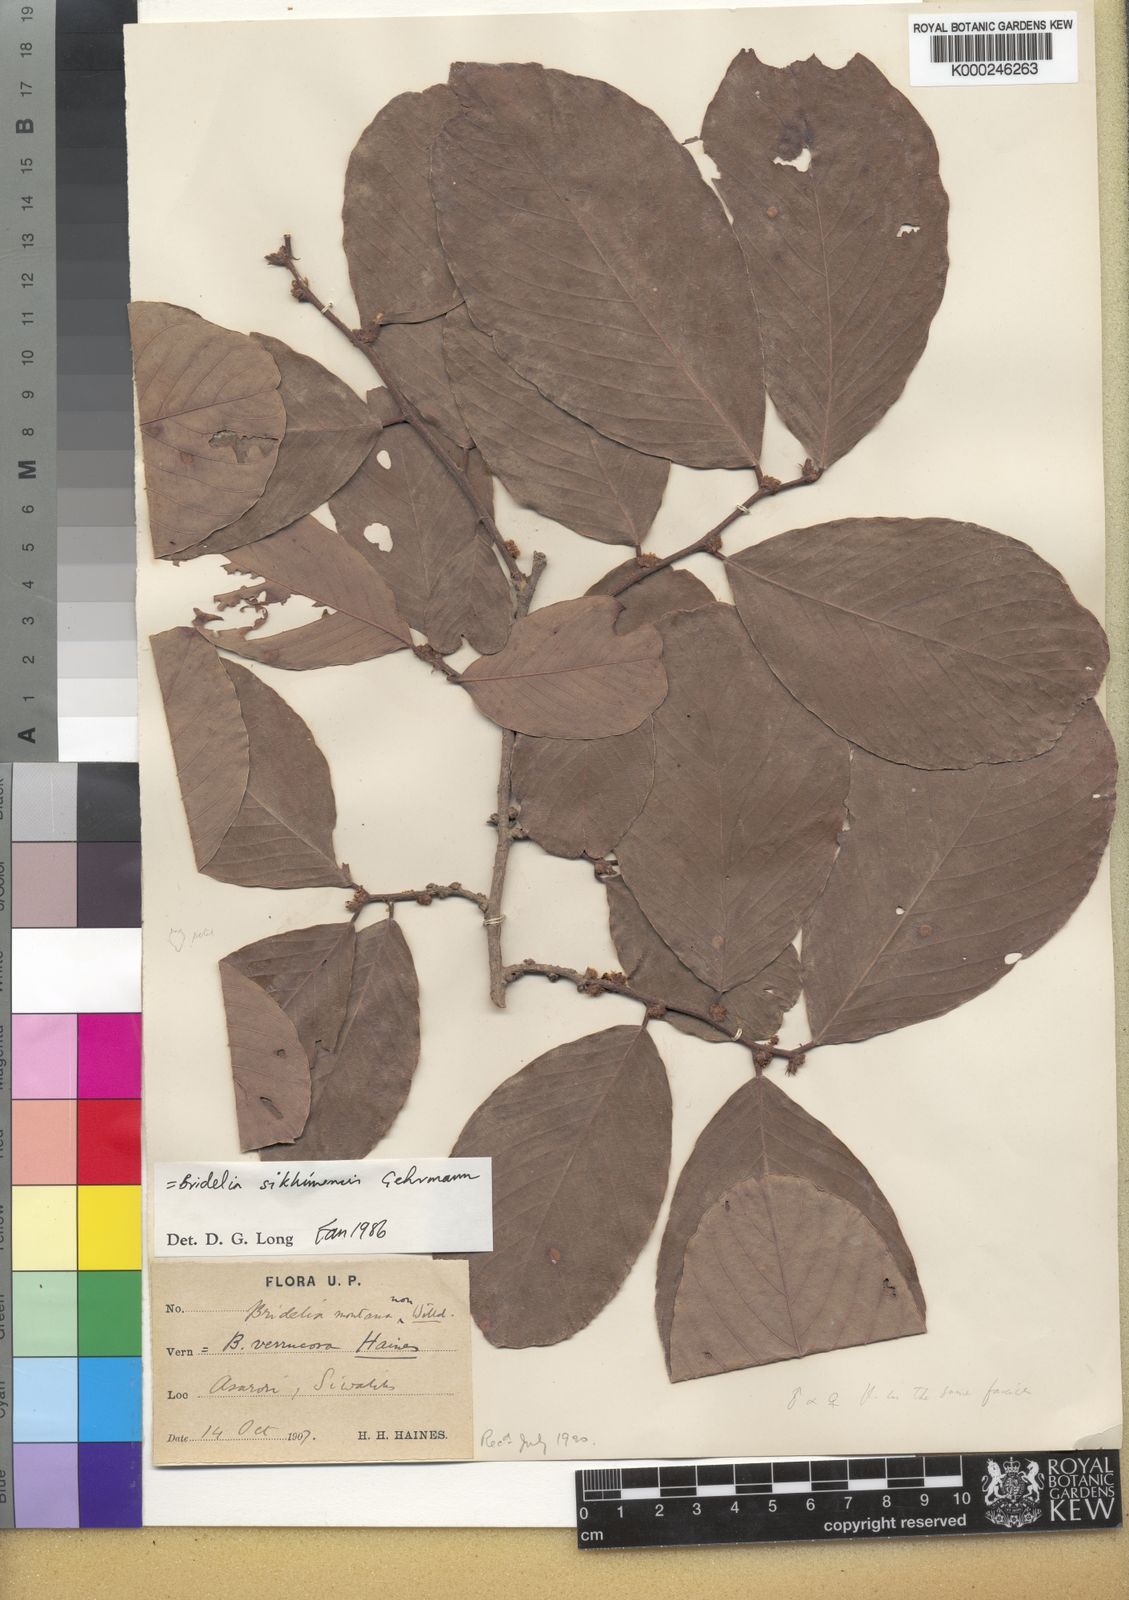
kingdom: Plantae
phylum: Tracheophyta
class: Magnoliopsida
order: Malpighiales
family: Phyllanthaceae
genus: Bridelia
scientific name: Bridelia verrucosa
